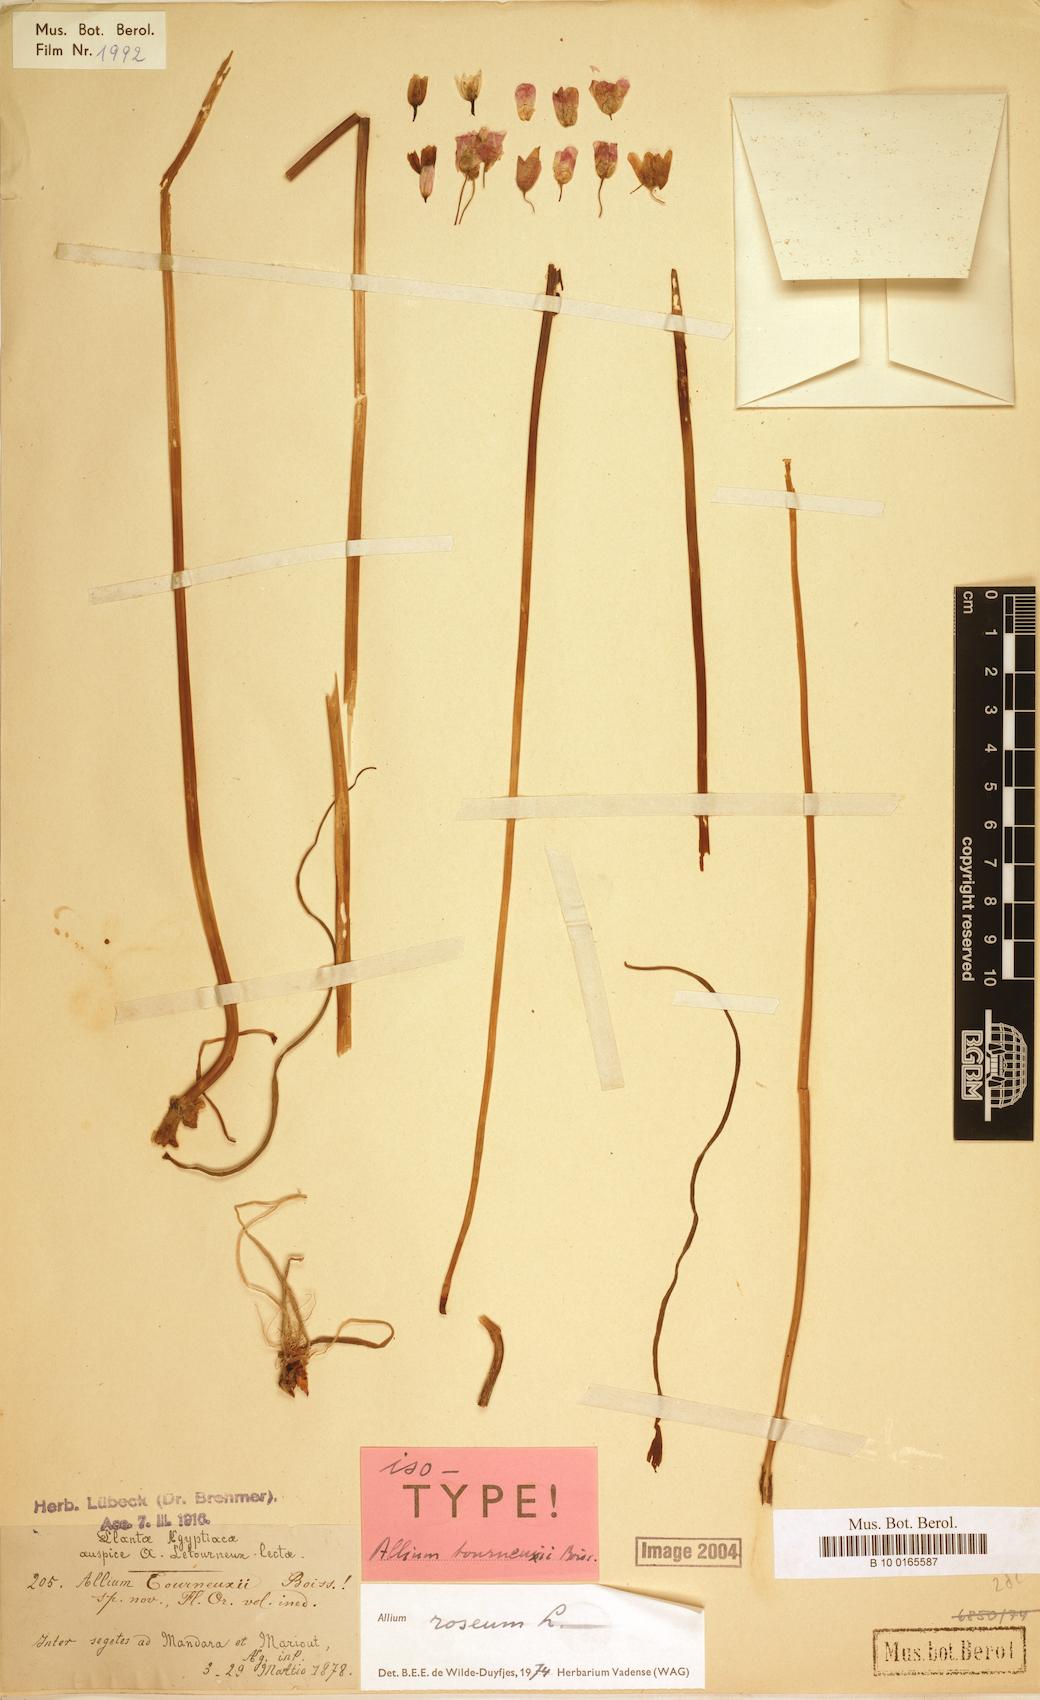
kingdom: Plantae
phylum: Tracheophyta
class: Liliopsida
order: Asparagales
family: Amaryllidaceae
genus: Allium
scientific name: Allium roseum
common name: Rosy garlic
